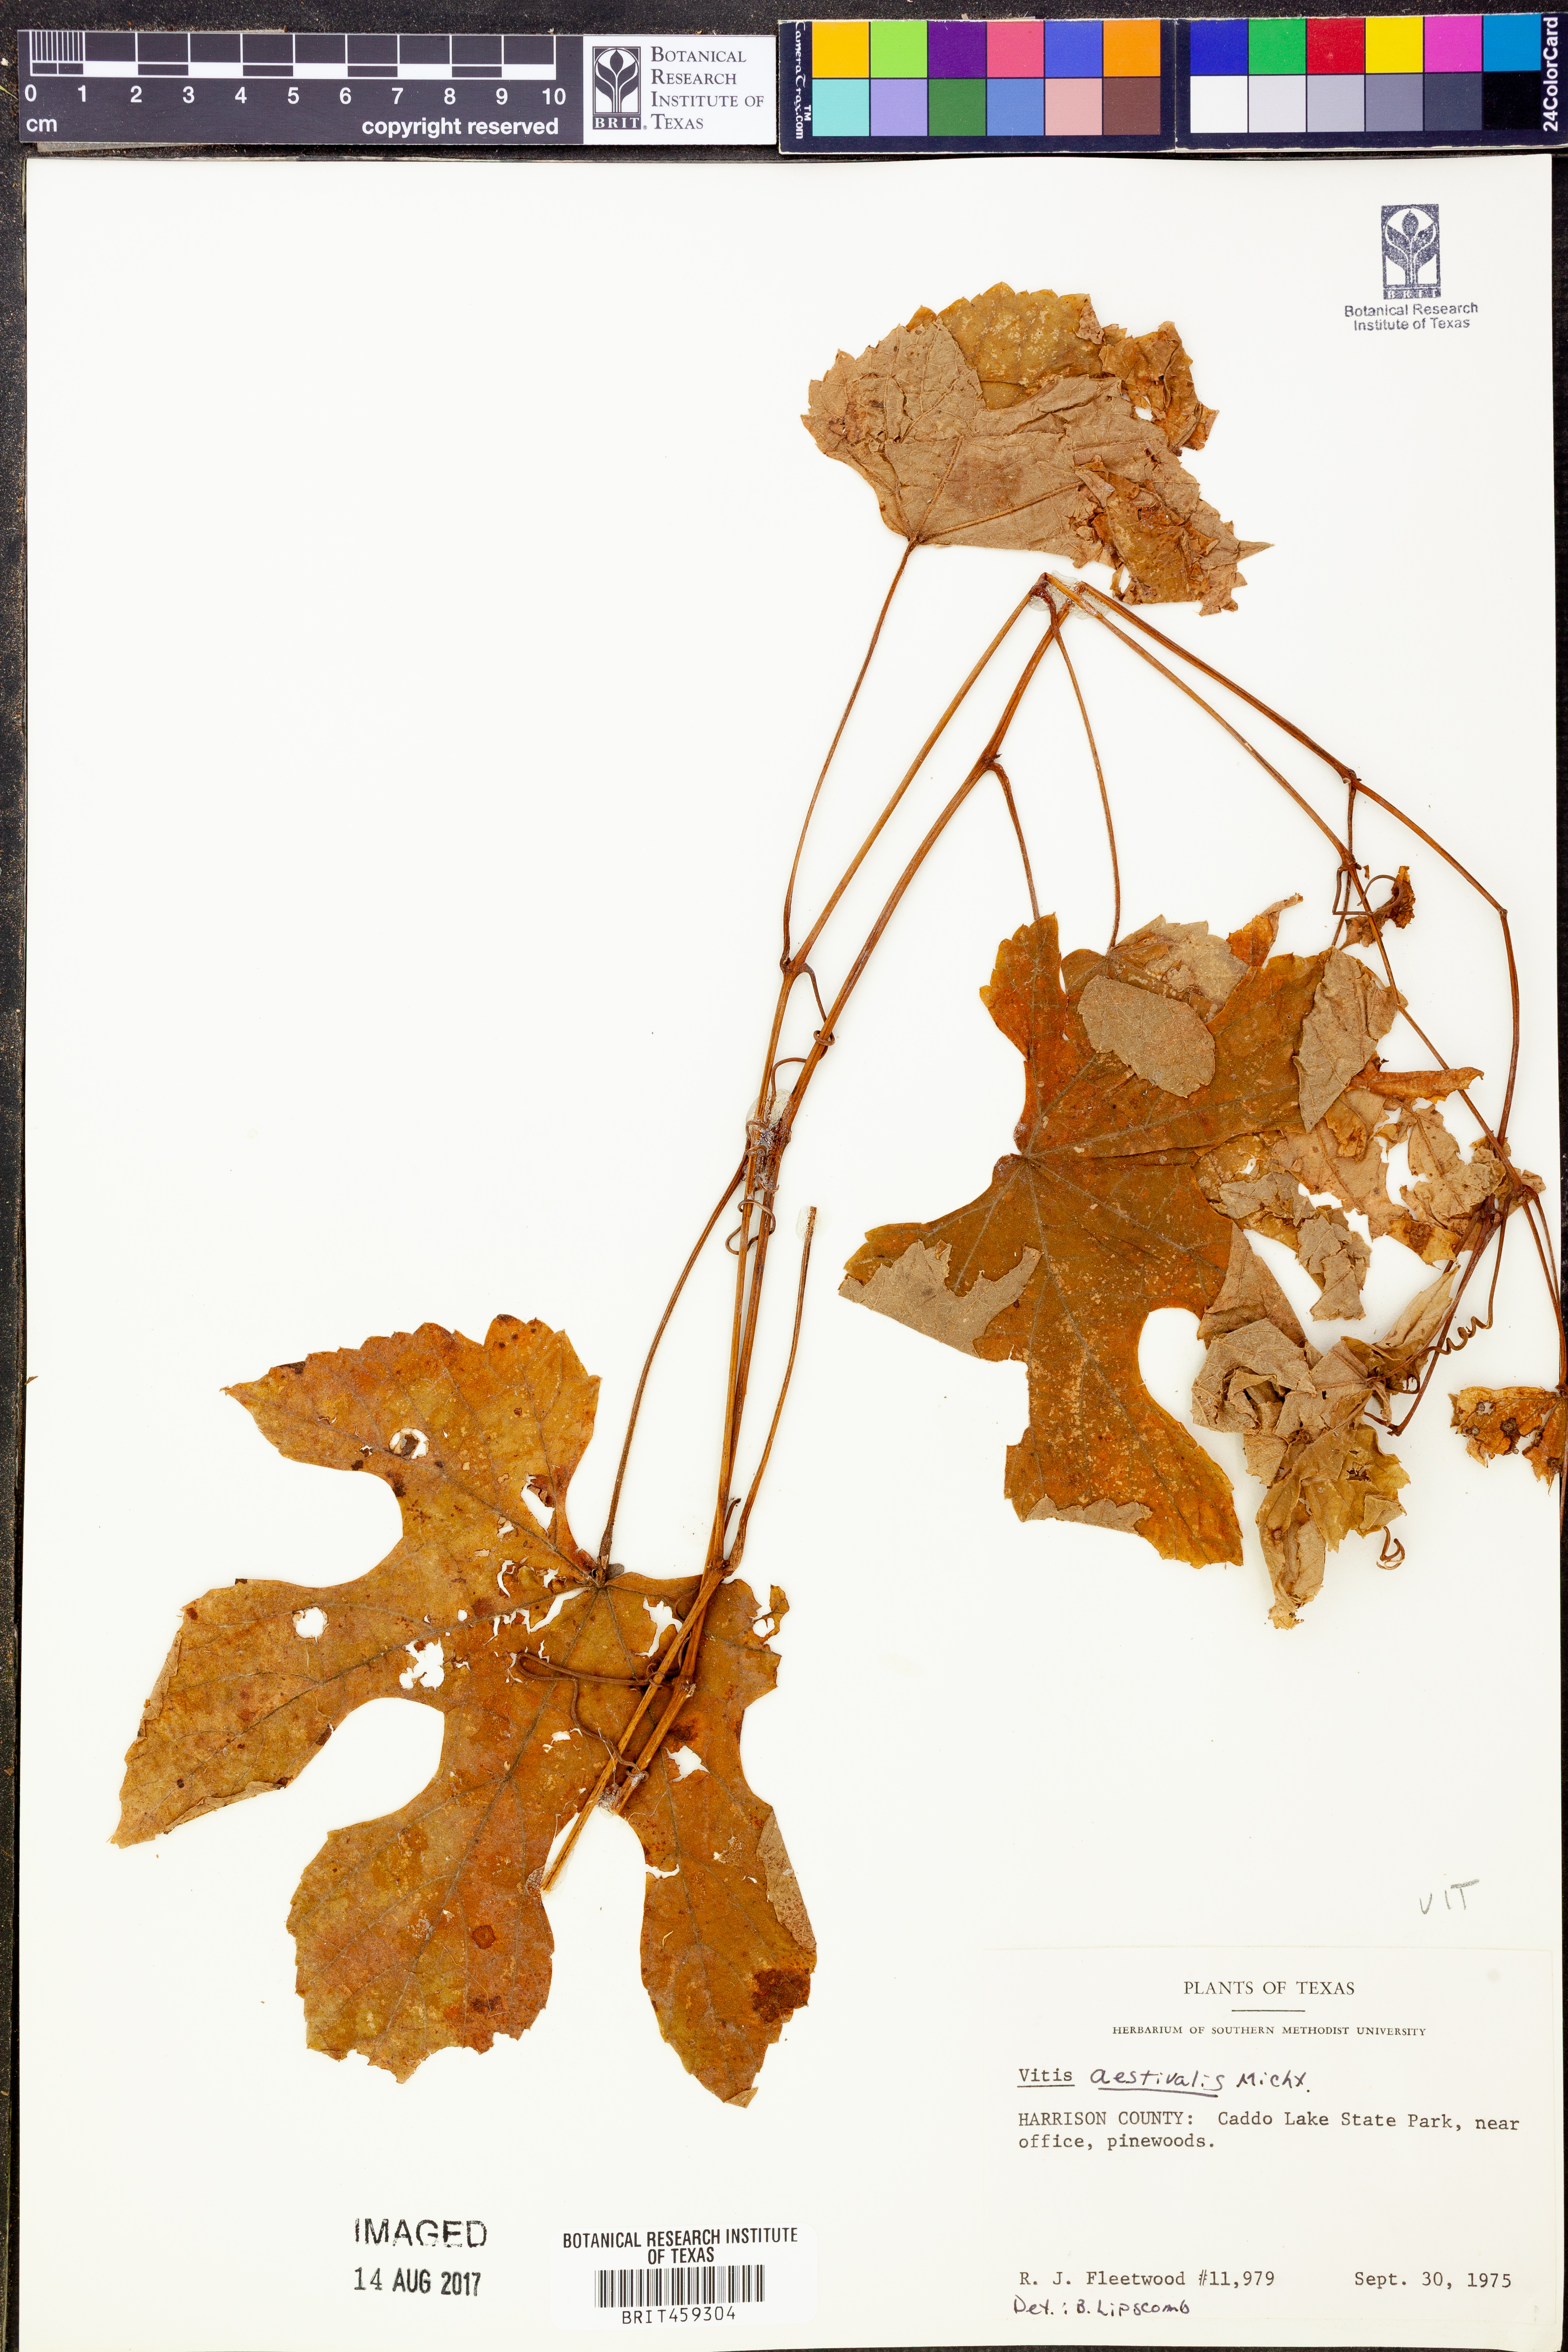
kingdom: Plantae
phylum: Tracheophyta
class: Magnoliopsida
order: Vitales
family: Vitaceae
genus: Vitis
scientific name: Vitis aestivalis
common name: Pigeon grape
